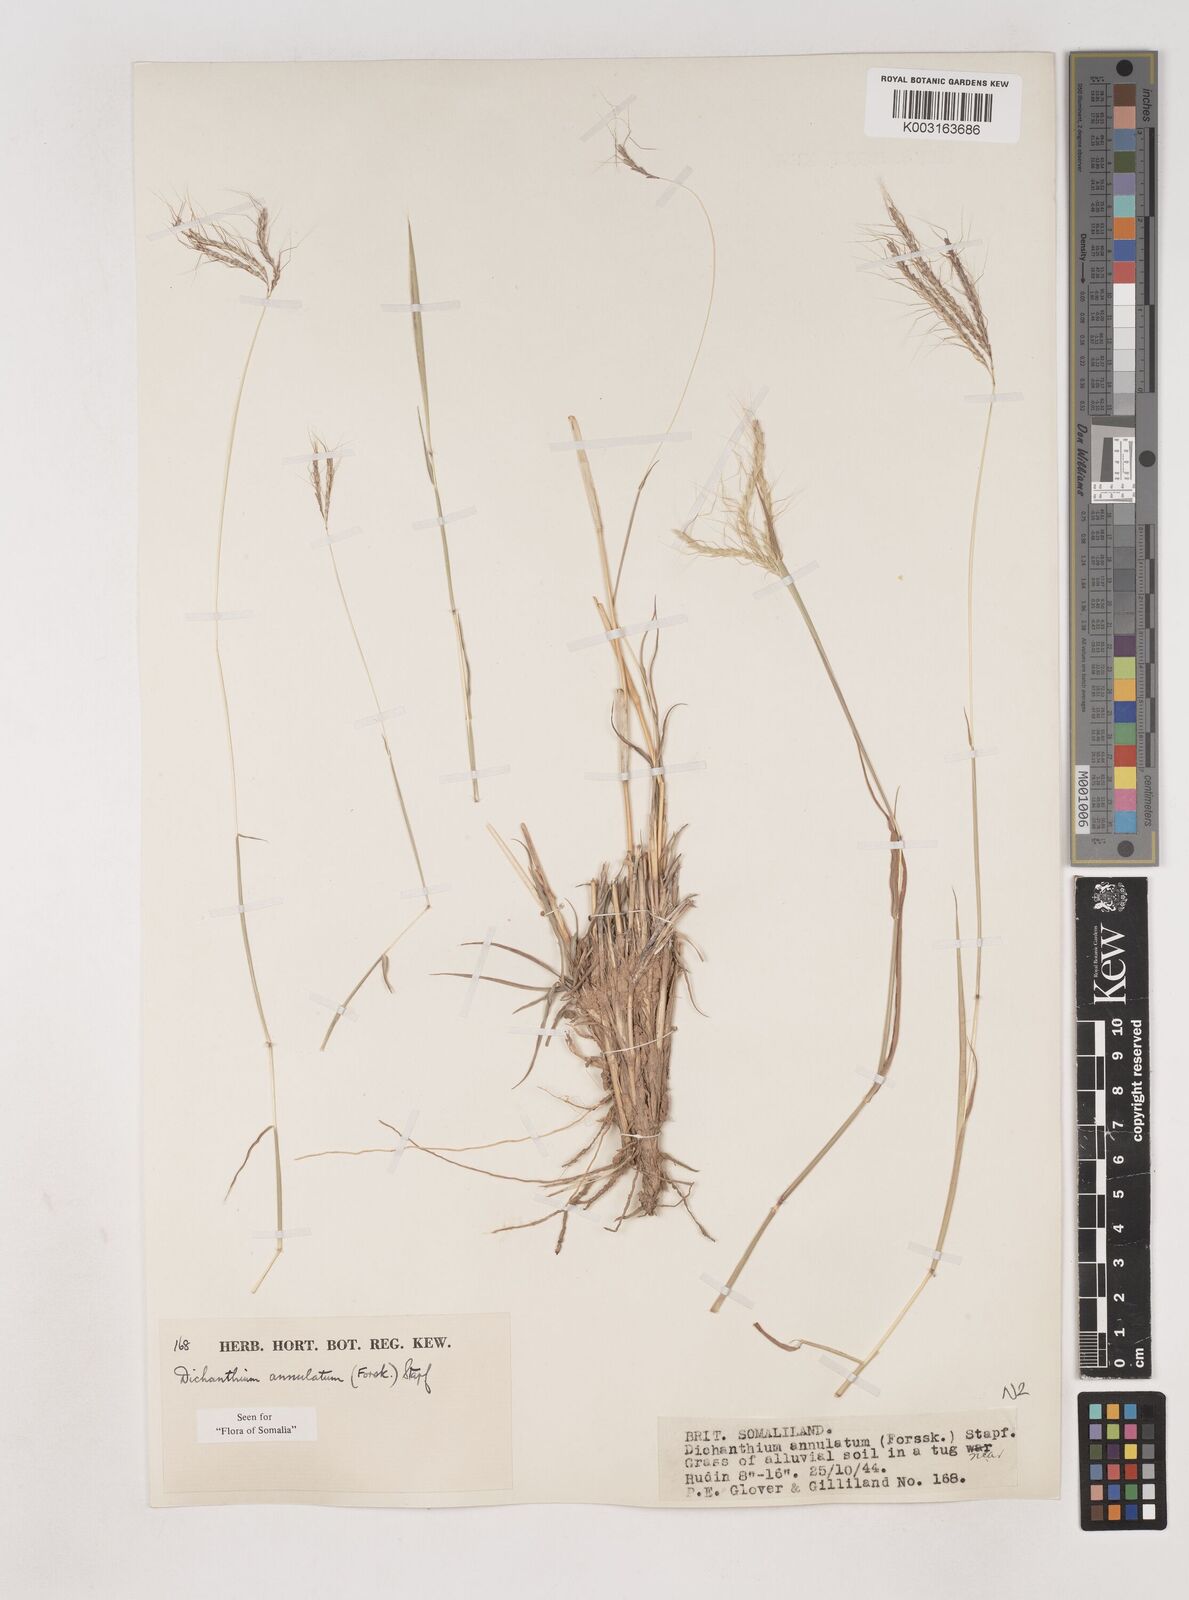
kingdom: Plantae
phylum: Tracheophyta
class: Liliopsida
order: Poales
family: Poaceae
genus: Dichanthium
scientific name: Dichanthium annulatum
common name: Kleberg's bluestem
